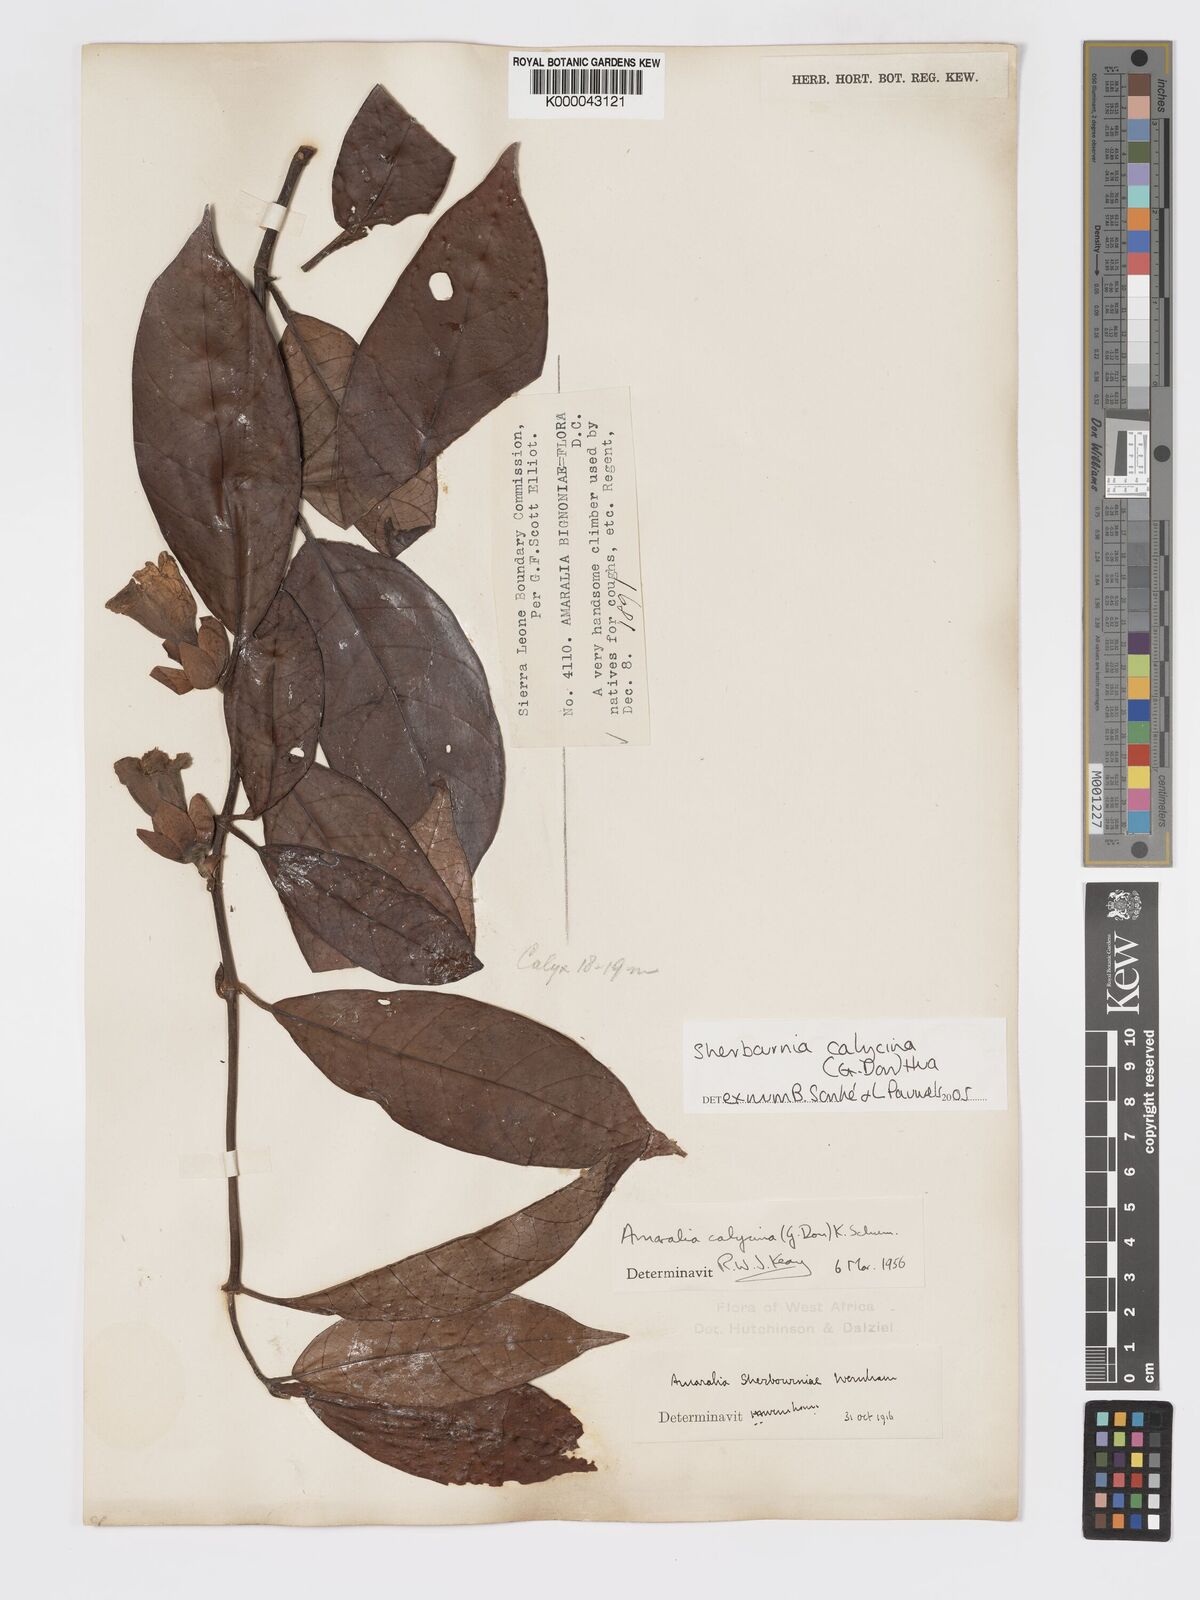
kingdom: Plantae
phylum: Tracheophyta
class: Magnoliopsida
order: Gentianales
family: Rubiaceae
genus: Sherbournia
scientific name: Sherbournia calycina
